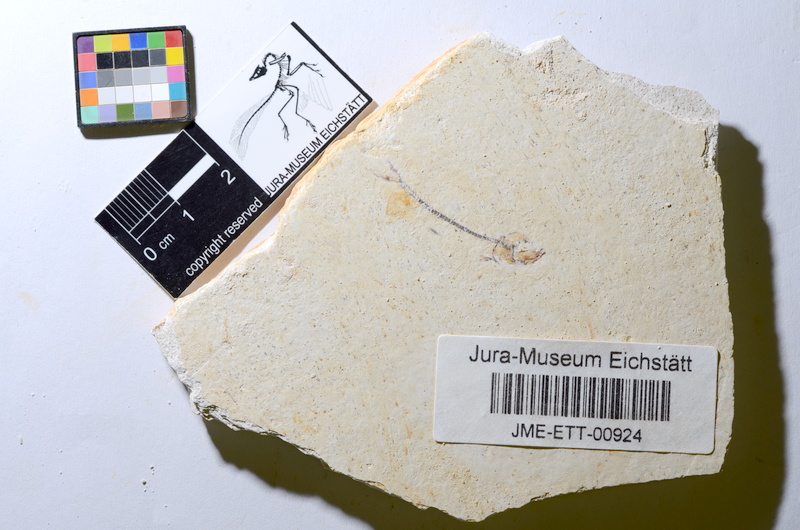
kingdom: Animalia
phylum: Chordata
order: Salmoniformes
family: Orthogonikleithridae
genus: Orthogonikleithrus
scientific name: Orthogonikleithrus hoelli
